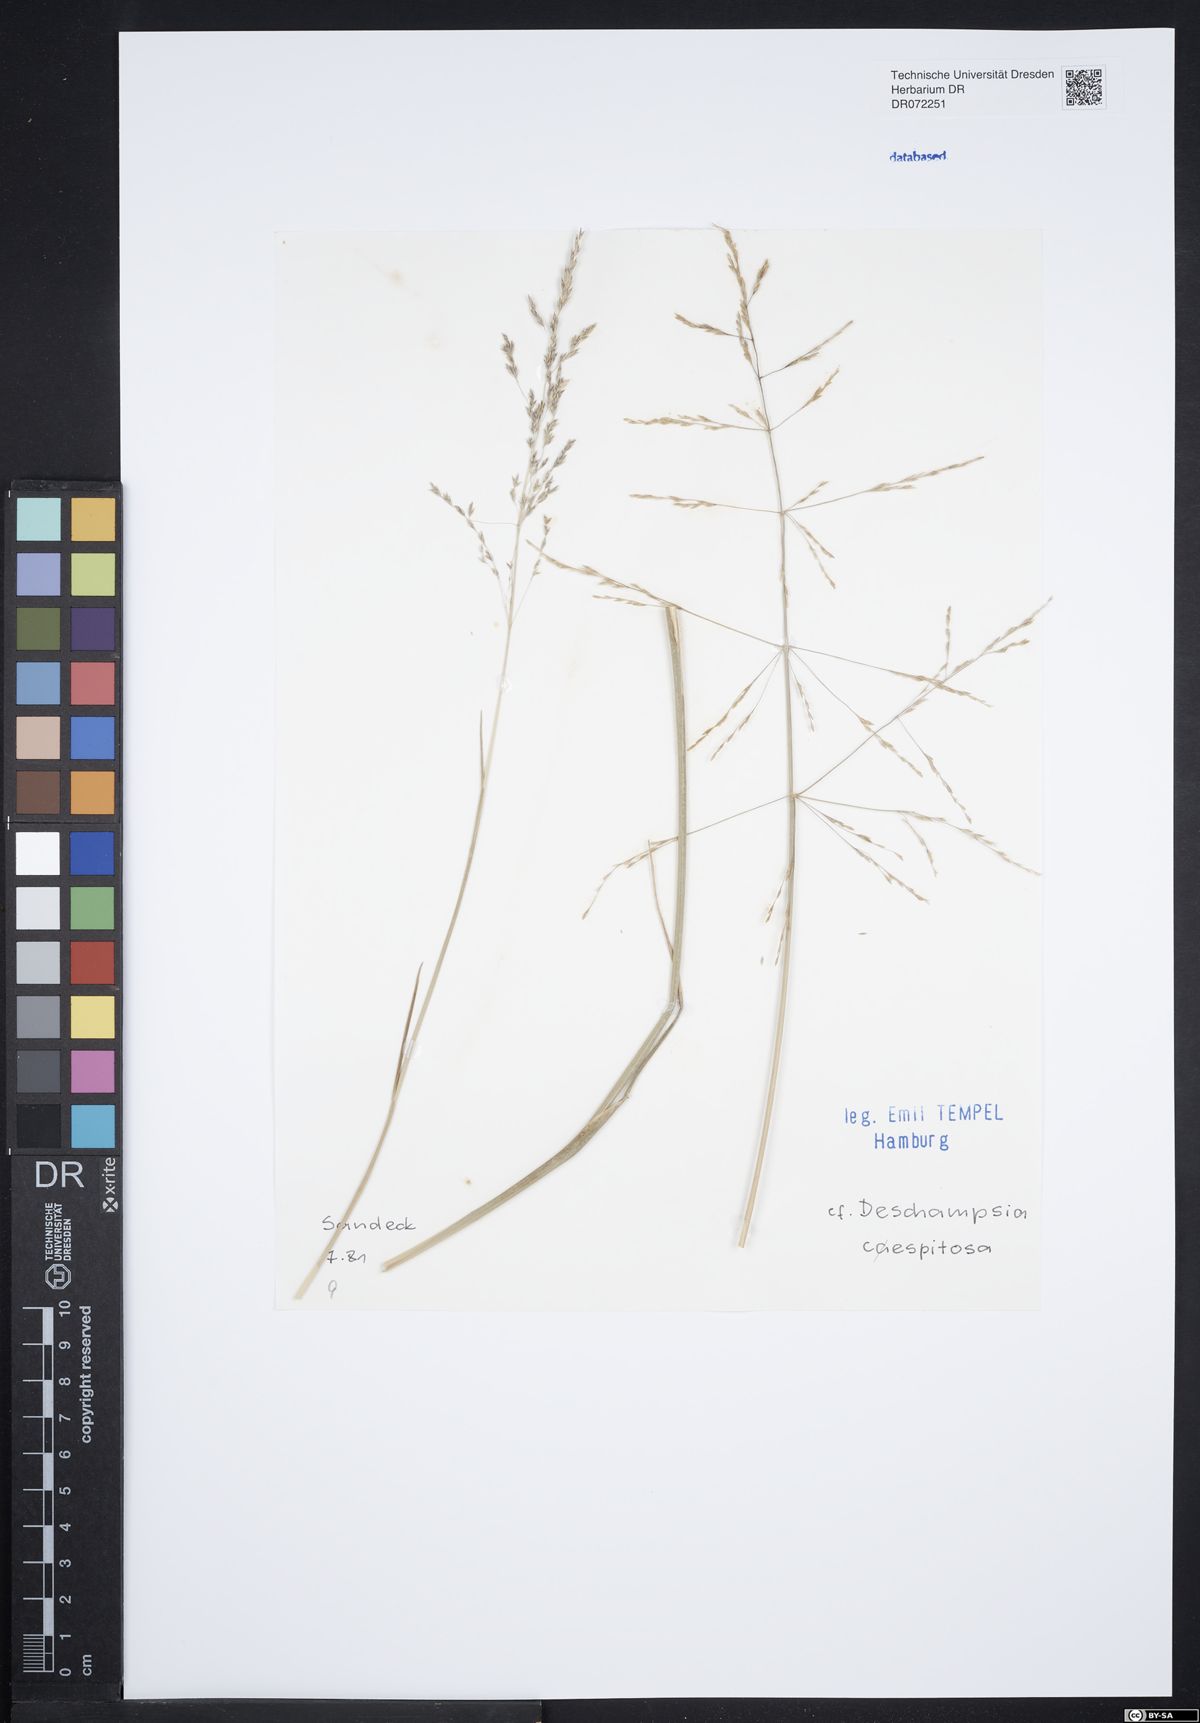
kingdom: Plantae
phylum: Tracheophyta
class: Liliopsida
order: Poales
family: Poaceae
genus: Deschampsia
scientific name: Deschampsia cespitosa
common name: Tufted hair-grass
